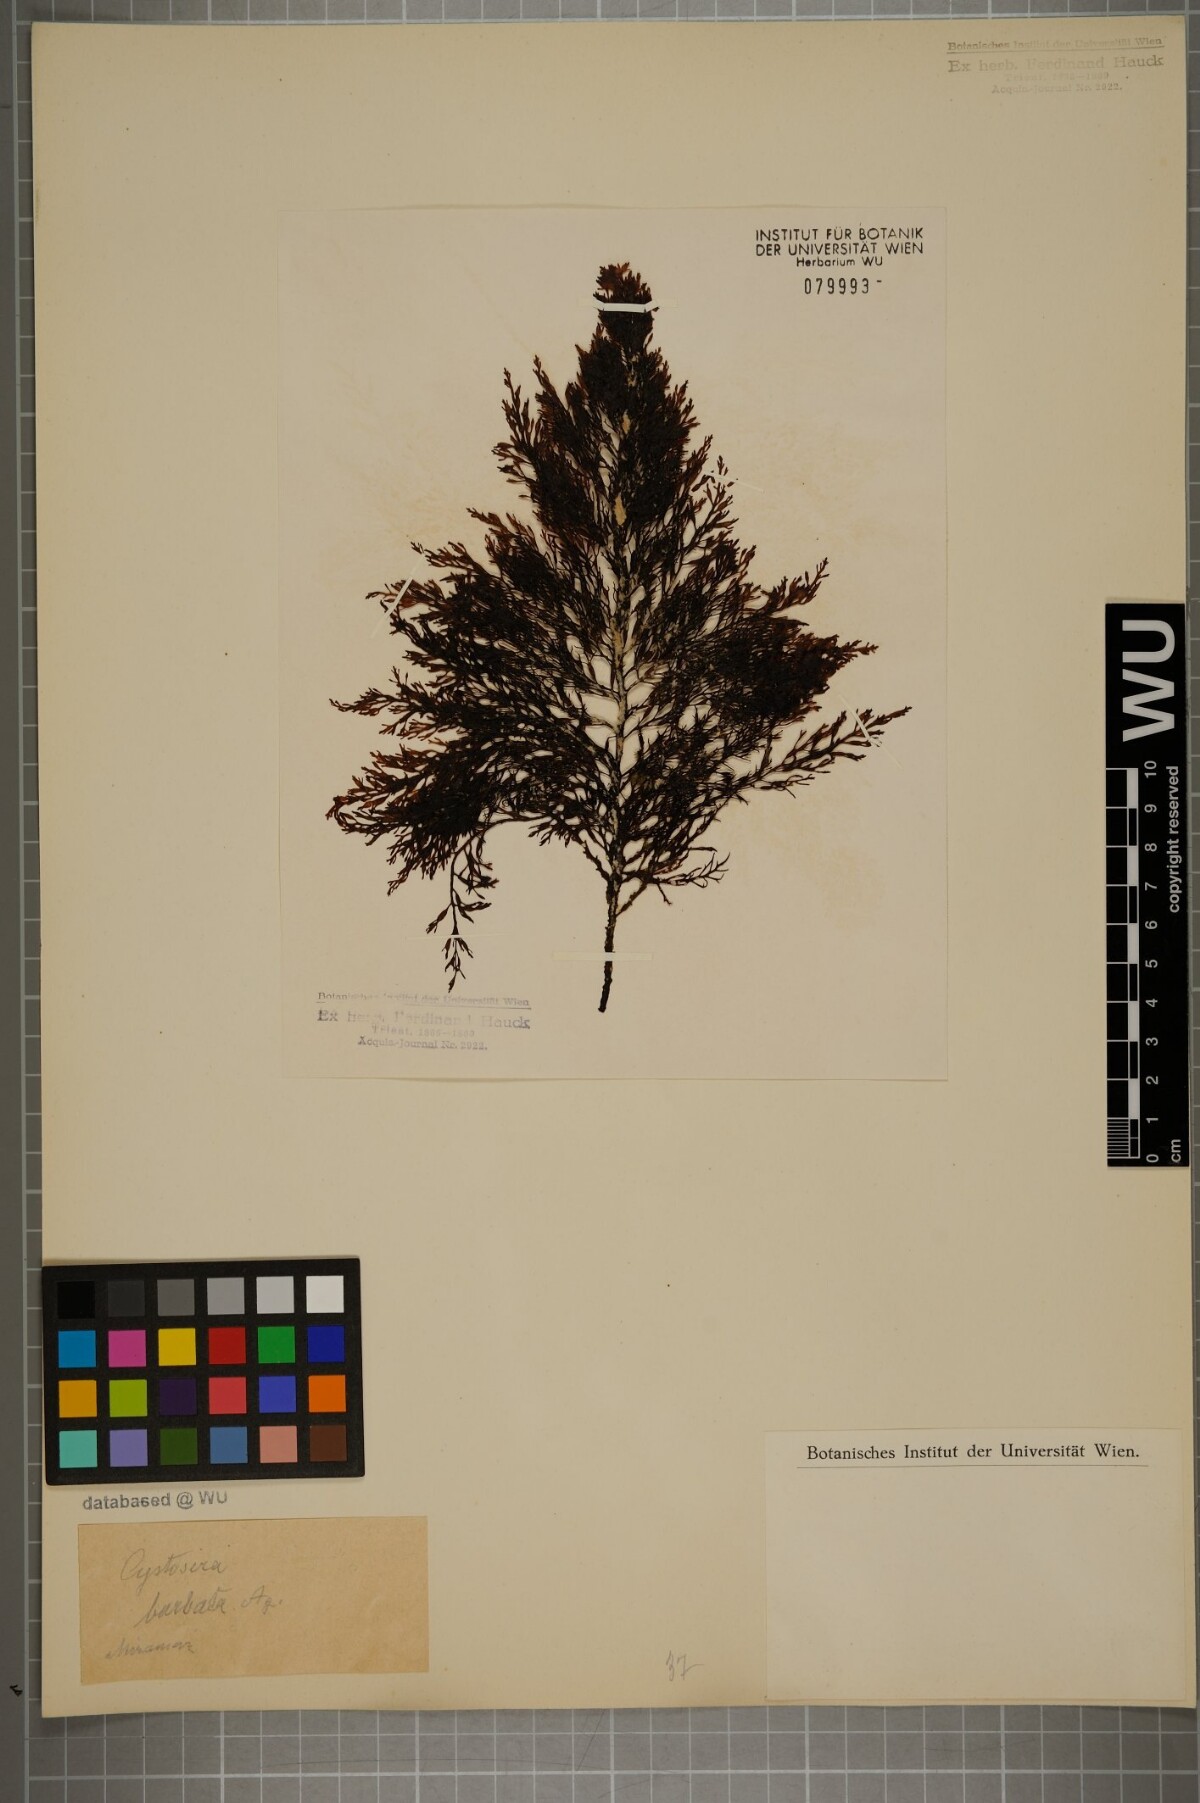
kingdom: Chromista
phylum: Ochrophyta
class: Phaeophyceae
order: Fucales
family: Sargassaceae
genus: Cystoseira
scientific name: Cystoseira Gongolaria barbata
